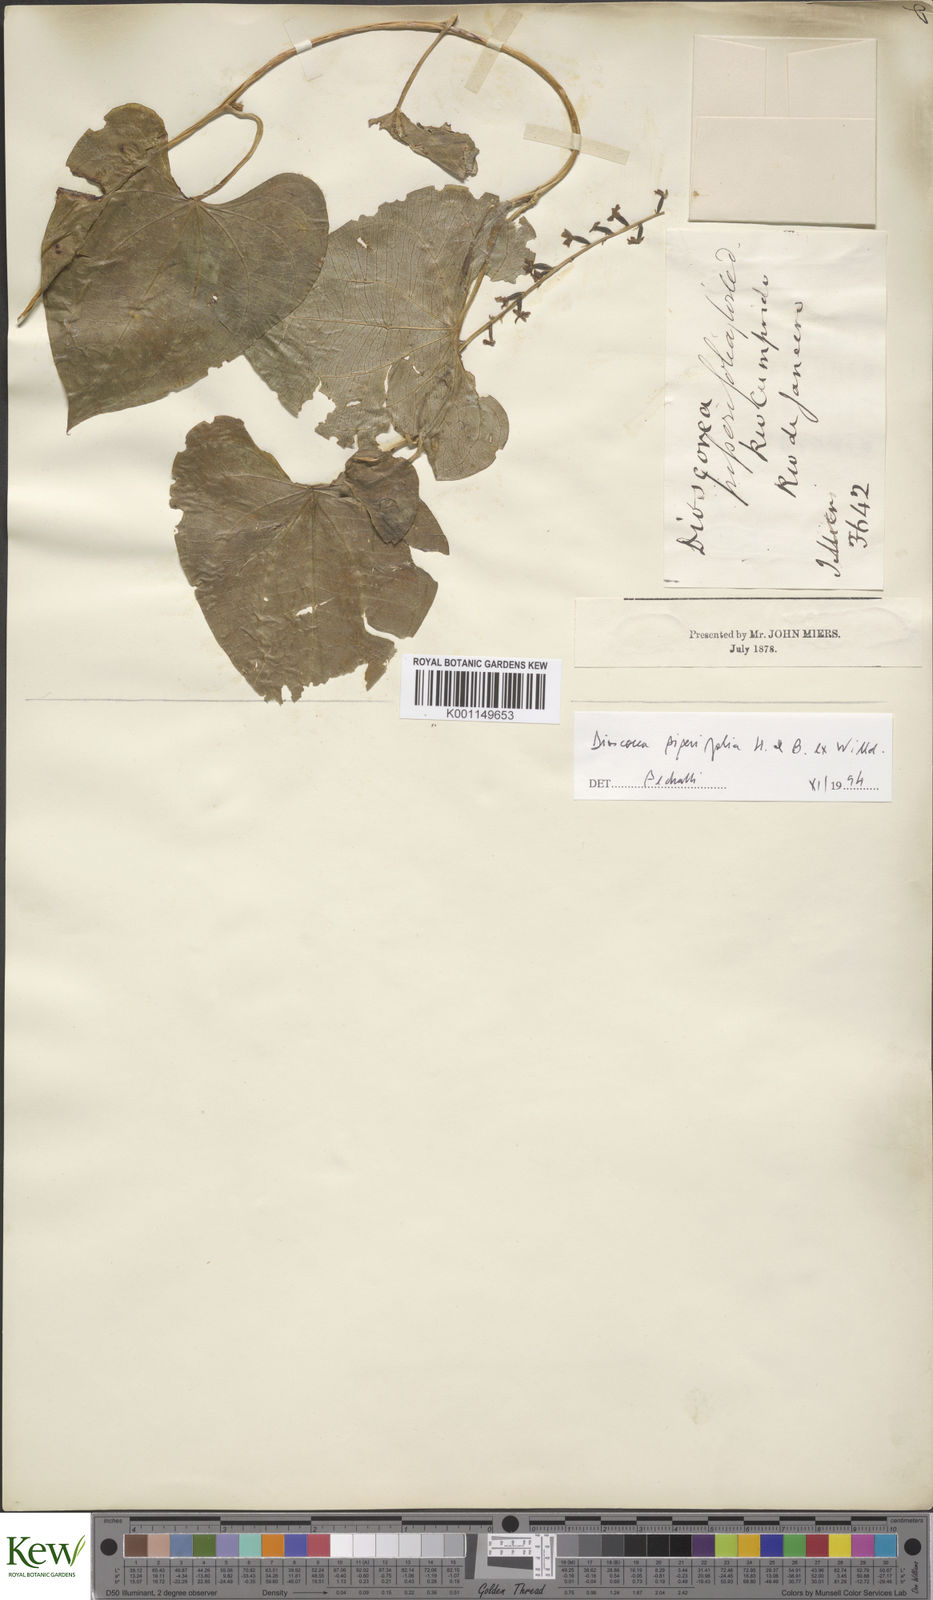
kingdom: Plantae
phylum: Tracheophyta
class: Liliopsida
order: Dioscoreales
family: Dioscoreaceae
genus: Dioscorea
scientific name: Dioscorea glandulosa
